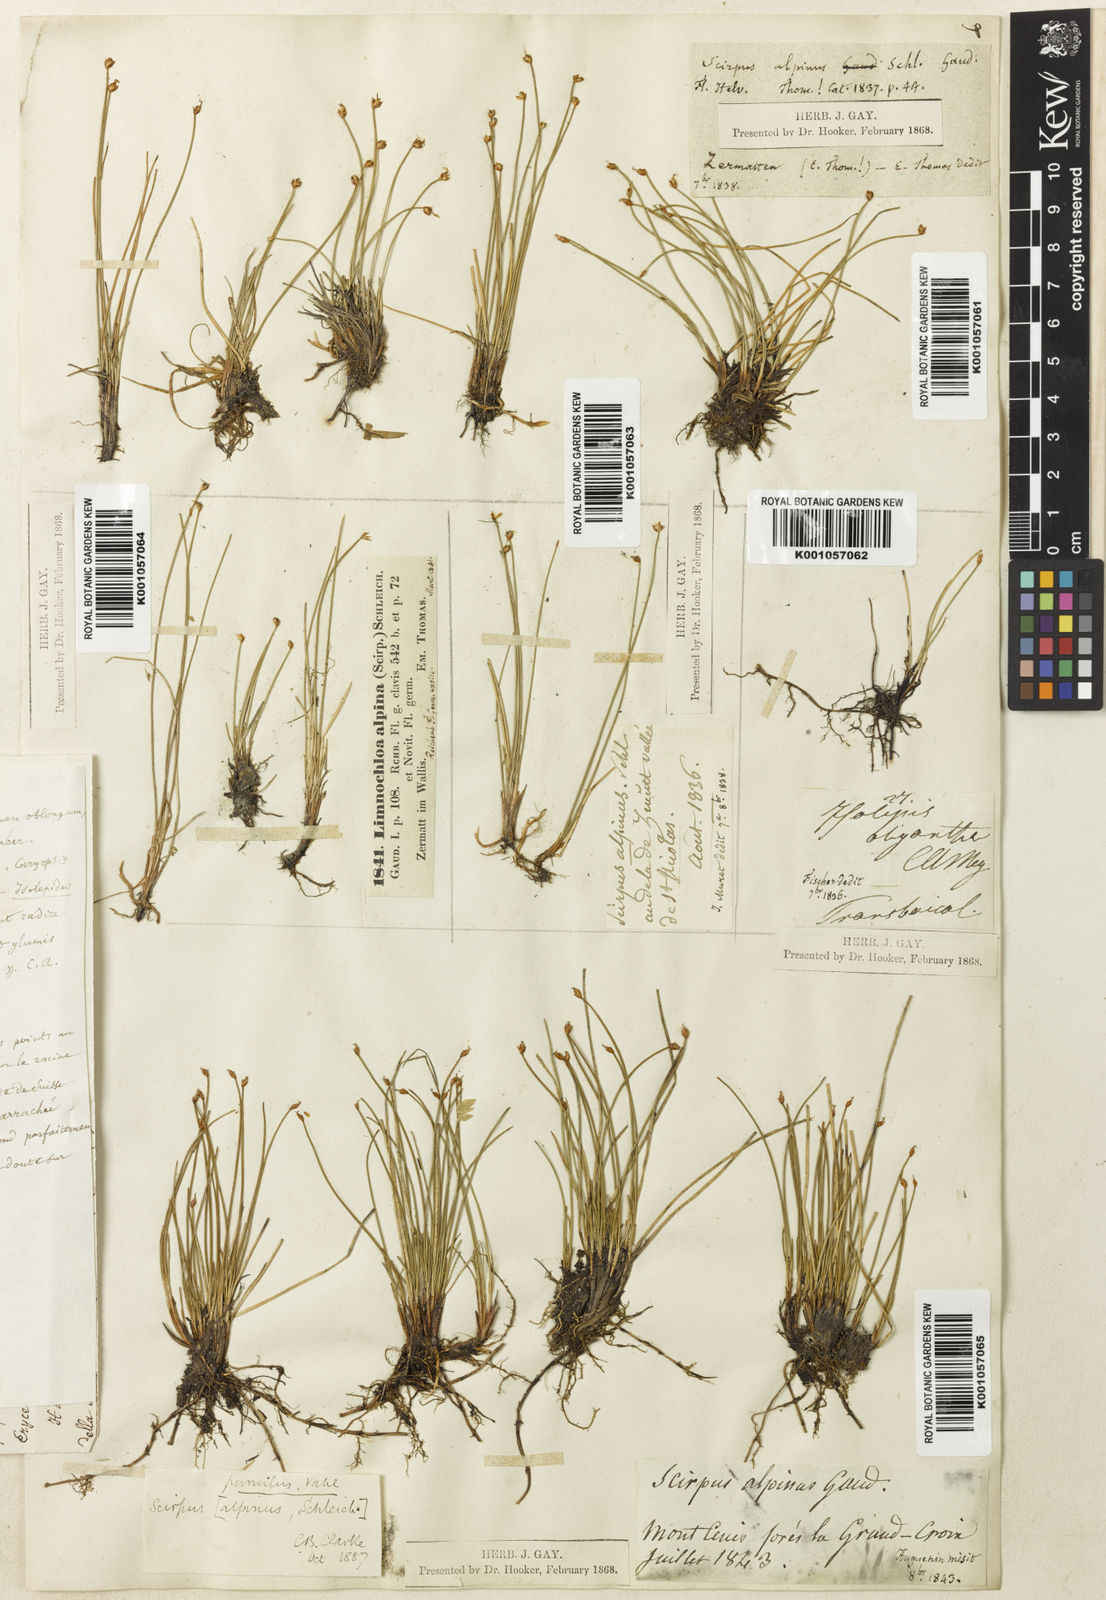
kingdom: Plantae
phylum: Tracheophyta
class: Liliopsida
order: Poales
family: Cyperaceae
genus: Trichophorum
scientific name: Trichophorum pumilum
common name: Rolland's bulrush
